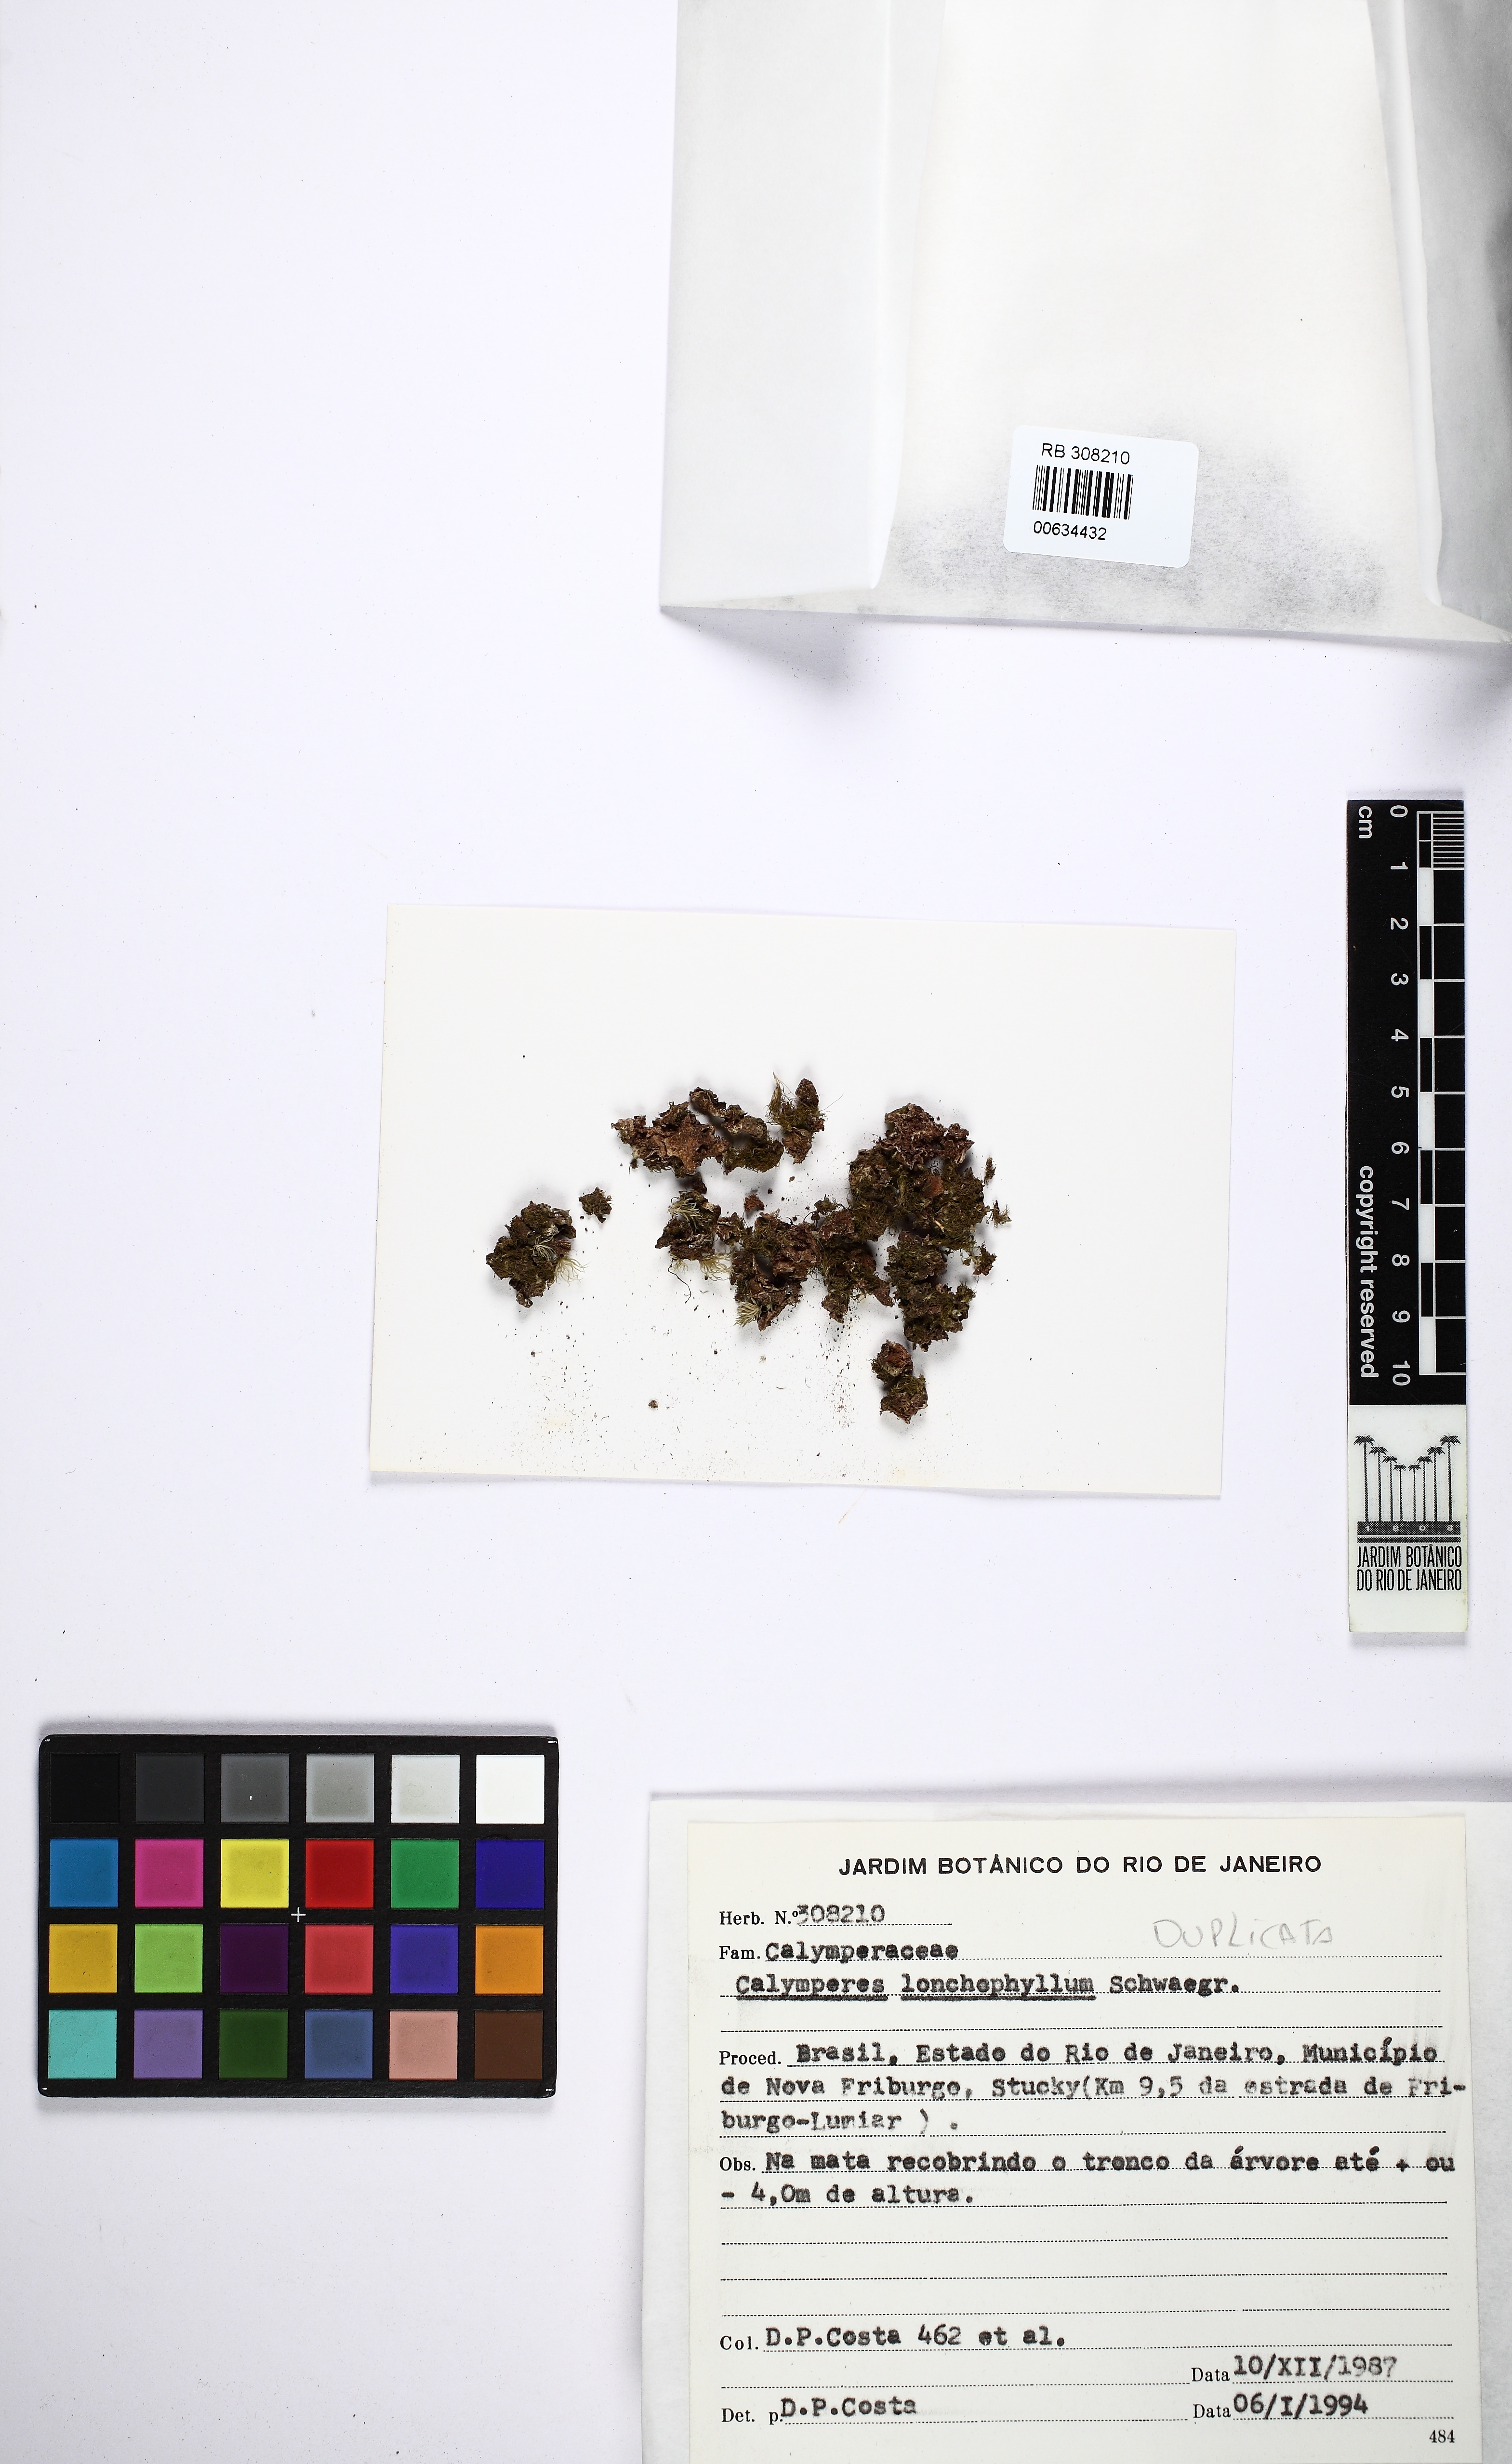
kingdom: Plantae
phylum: Bryophyta
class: Bryopsida
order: Dicranales
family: Calymperaceae
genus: Calymperes
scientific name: Calymperes lonchophyllum
